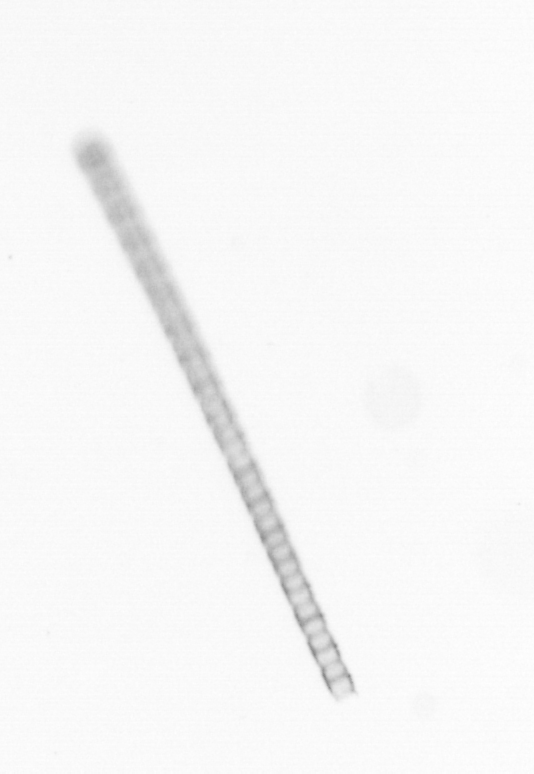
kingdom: Chromista
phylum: Ochrophyta
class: Bacillariophyceae
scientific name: Bacillariophyceae
